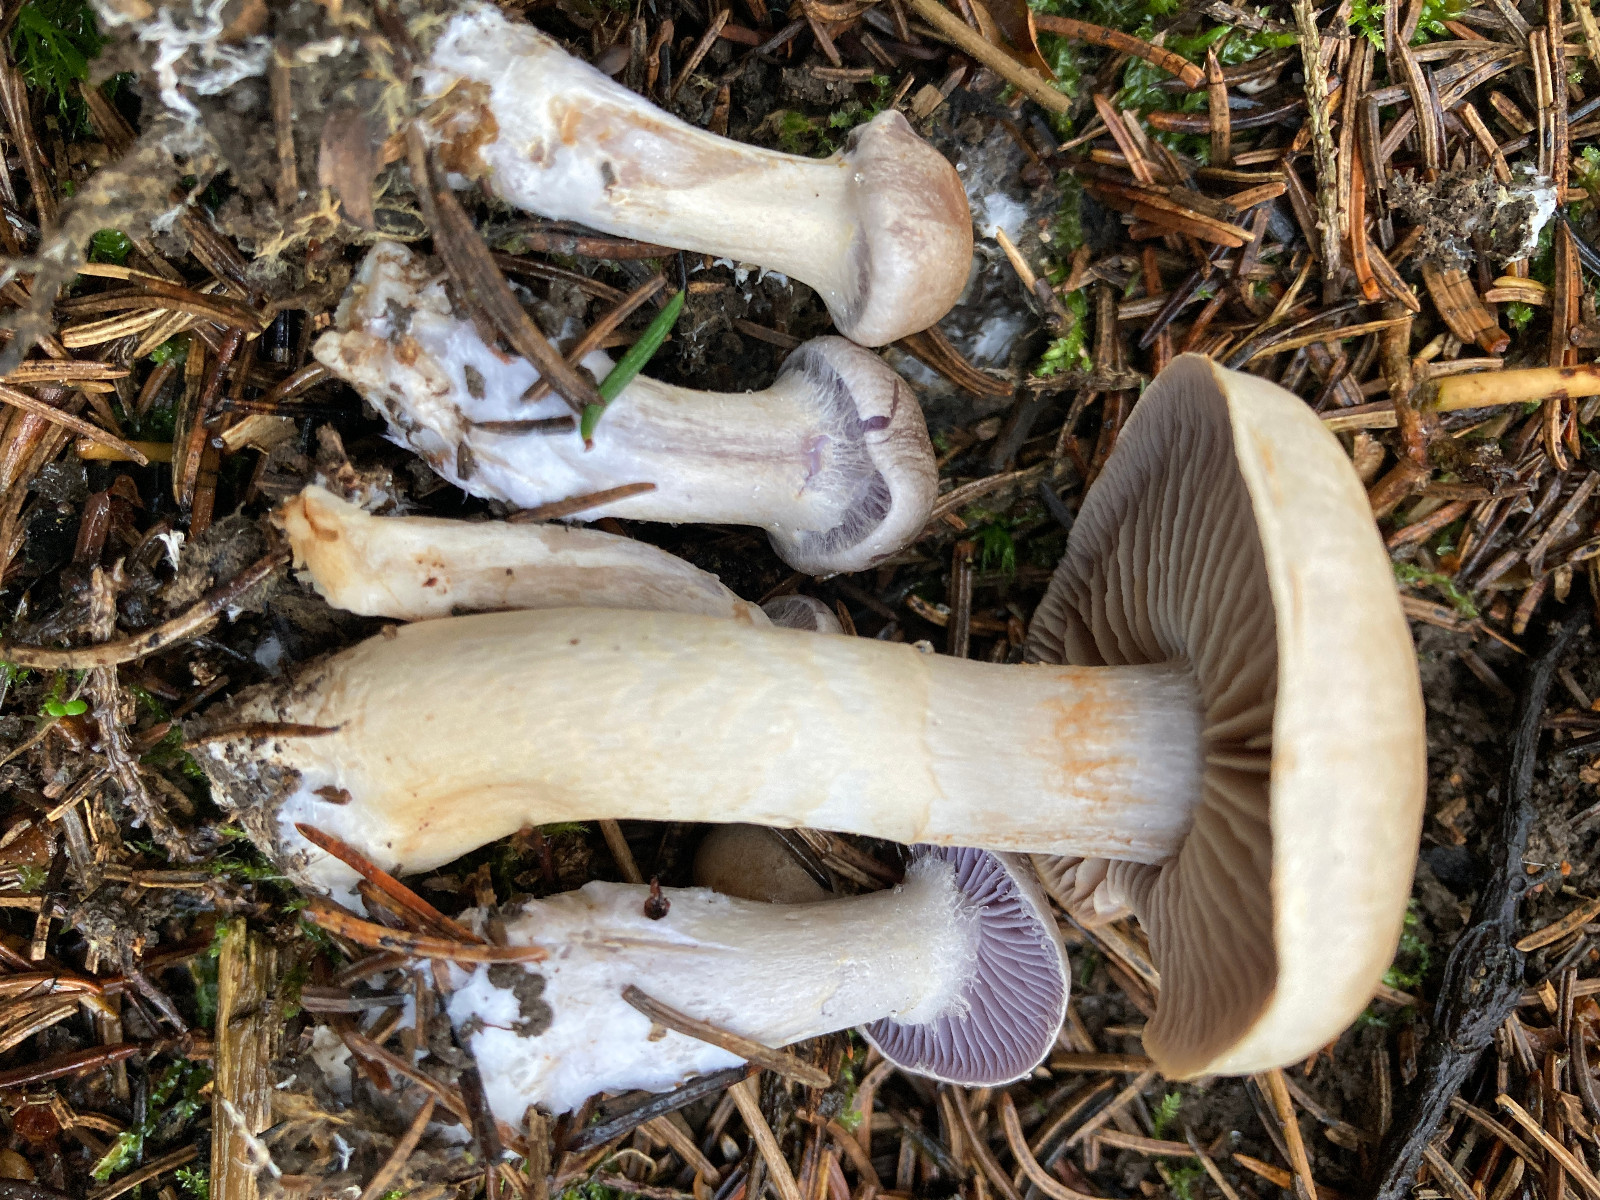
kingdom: Fungi
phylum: Basidiomycota
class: Agaricomycetes
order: Agaricales
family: Cortinariaceae
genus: Cortinarius
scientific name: Cortinarius anomalus
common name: Variable webcap
